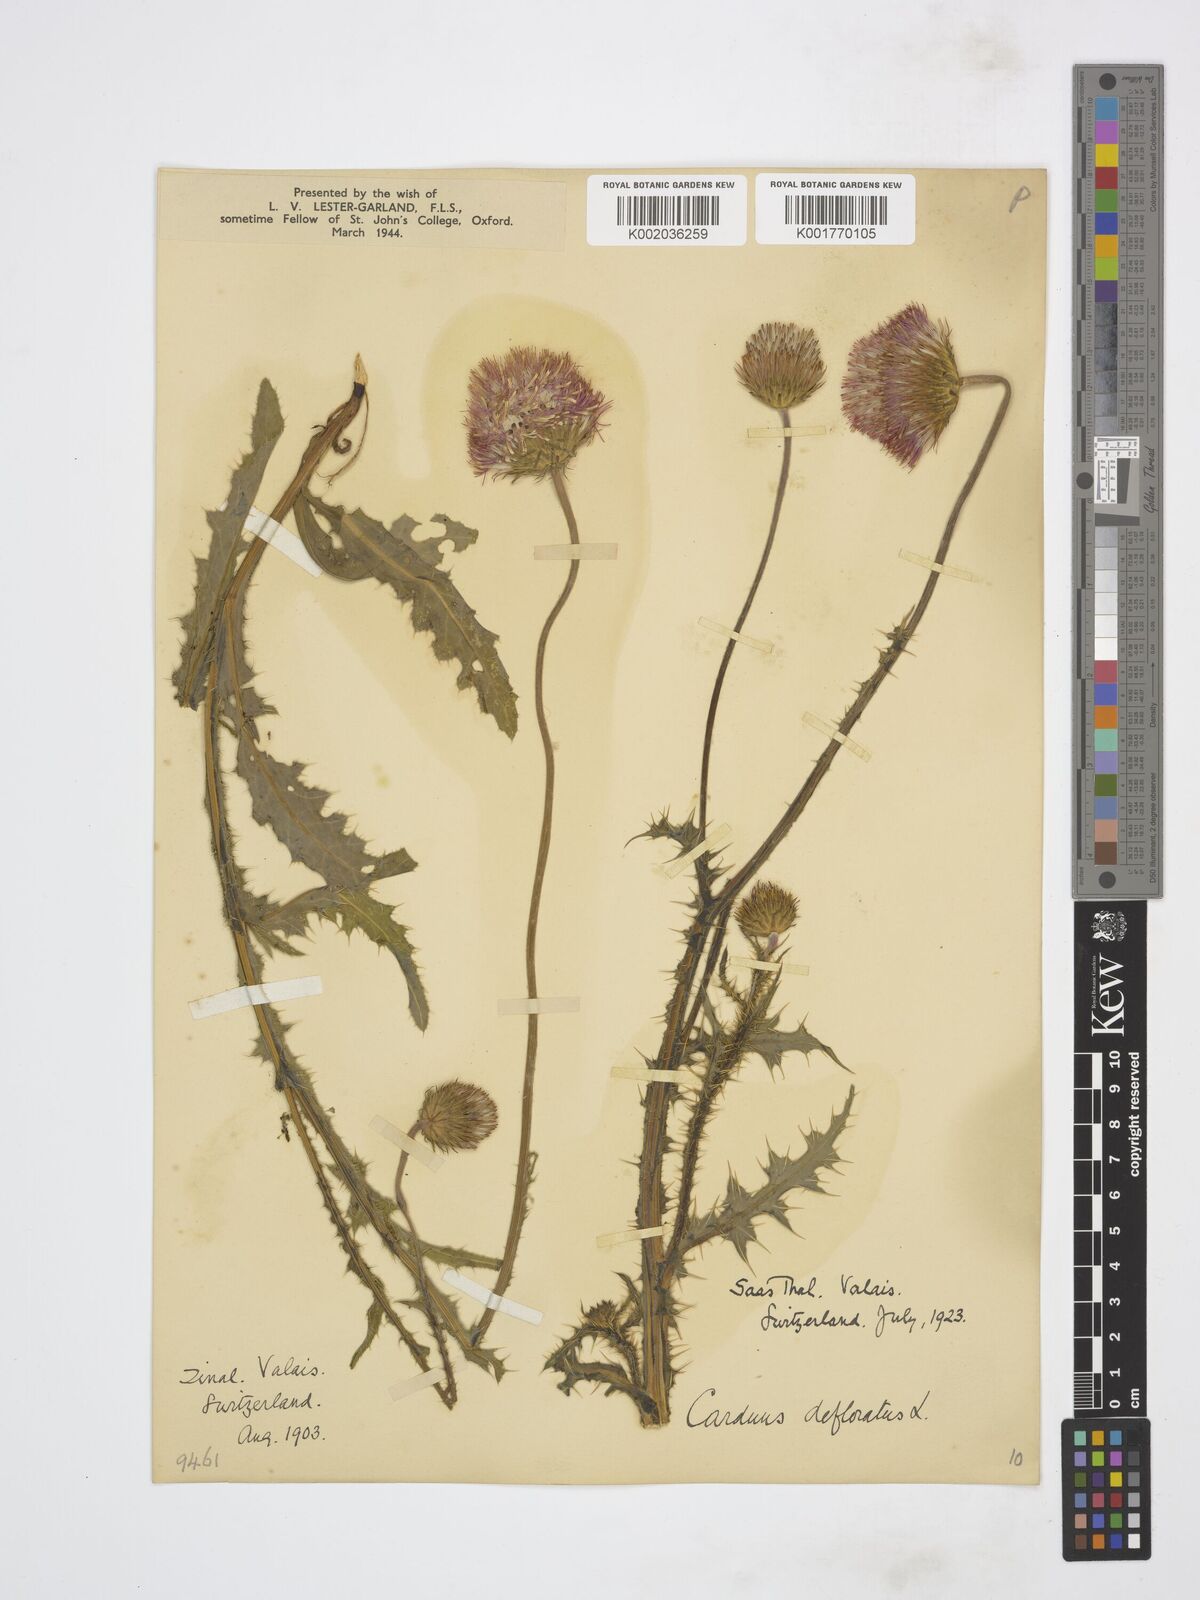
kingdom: Plantae
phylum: Tracheophyta
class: Magnoliopsida
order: Asterales
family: Asteraceae
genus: Carduus
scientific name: Carduus defloratus
